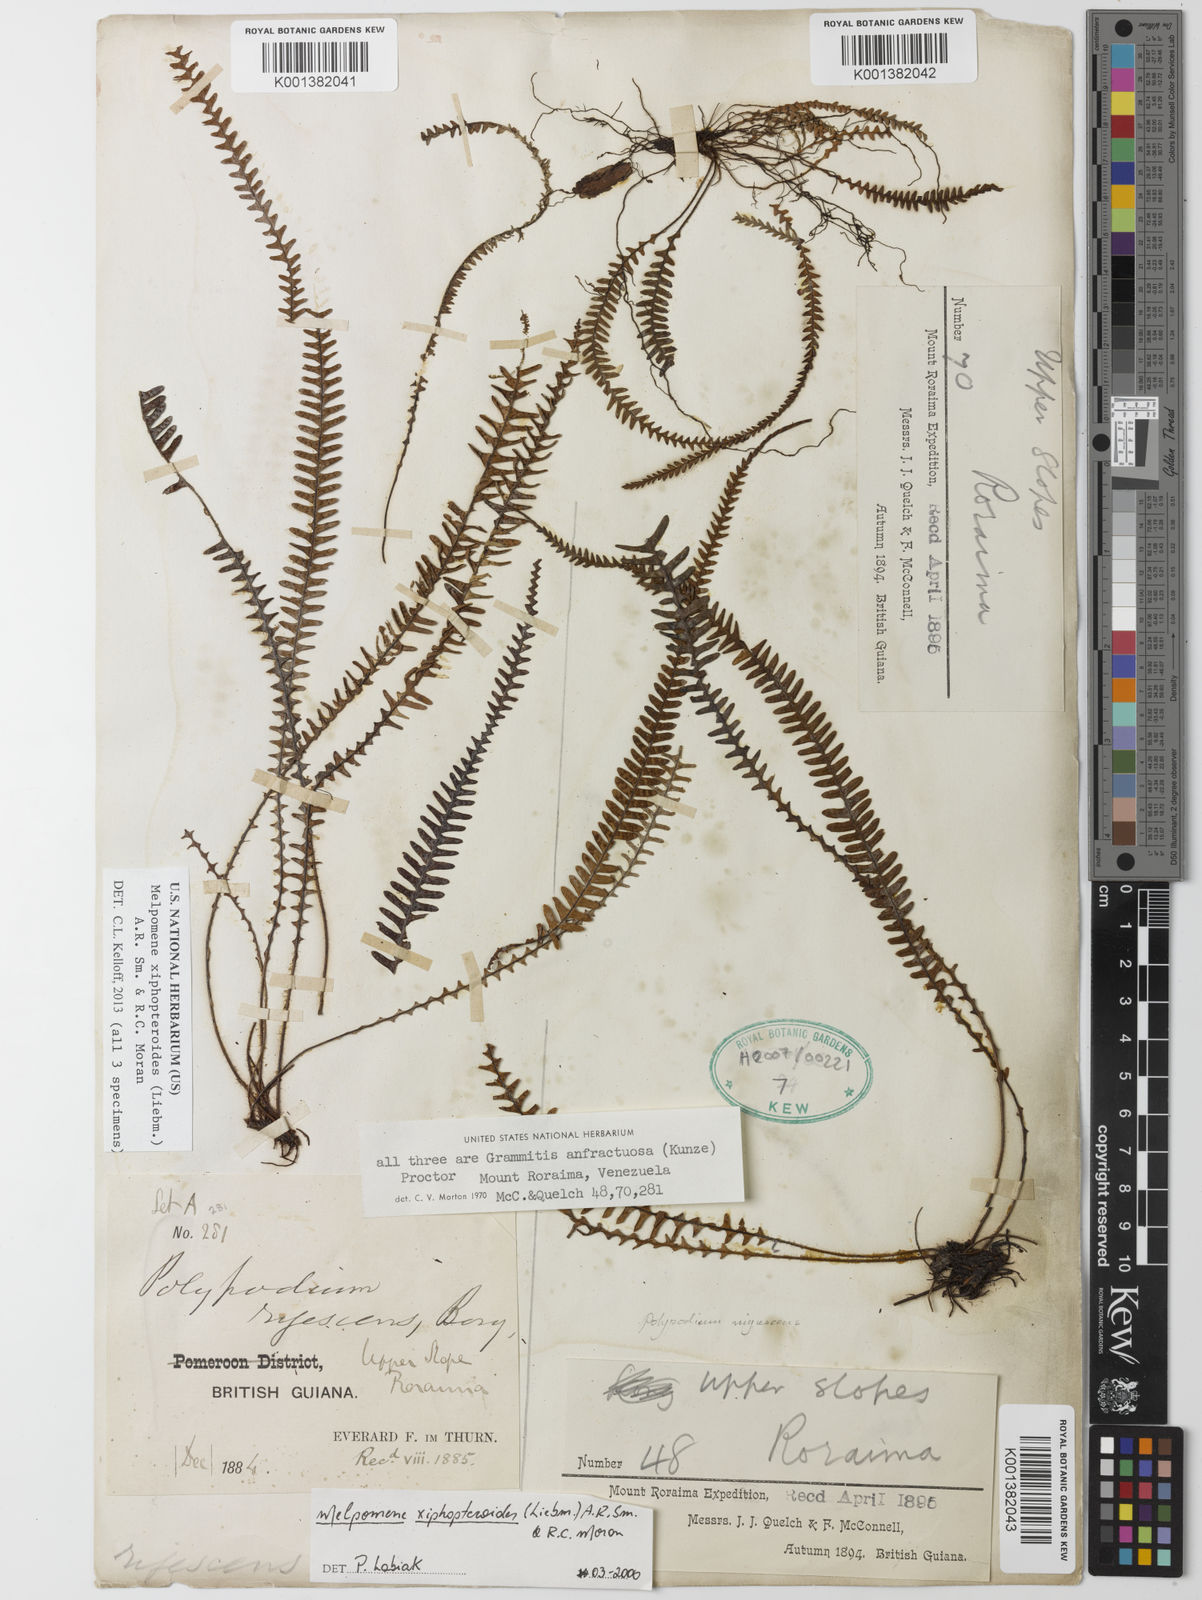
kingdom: Plantae
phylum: Tracheophyta
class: Polypodiopsida
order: Polypodiales
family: Polypodiaceae
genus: Melpomene
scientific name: Melpomene xiphopteroides
